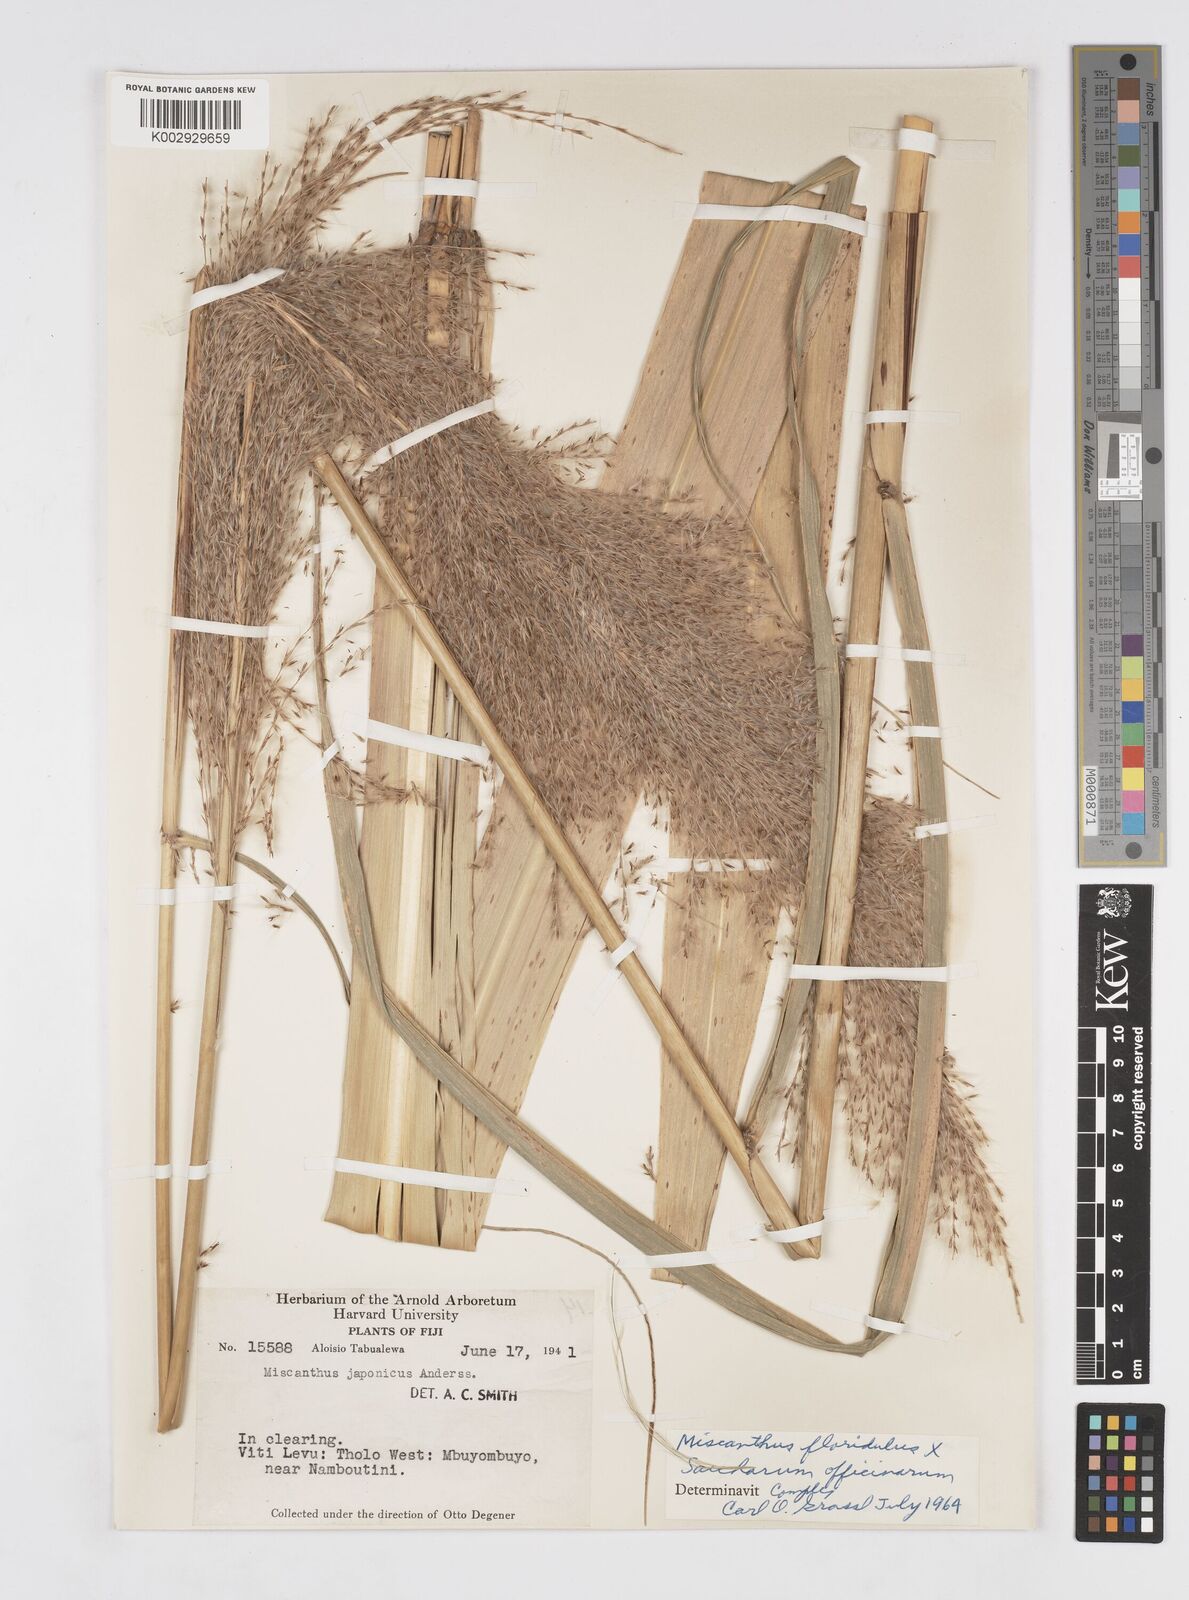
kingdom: Plantae
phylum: Tracheophyta
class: Liliopsida
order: Poales
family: Poaceae
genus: Saccharum
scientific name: Saccharum officinarum
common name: Sugarcane
